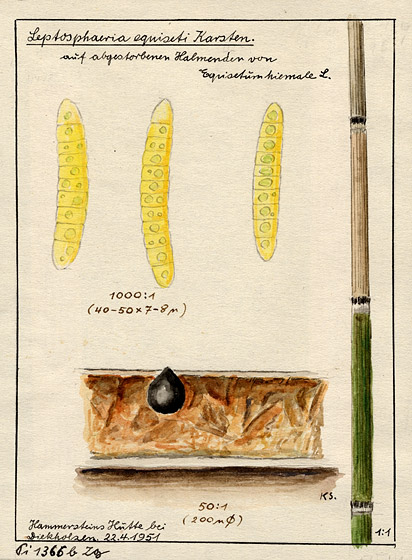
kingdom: Plantae
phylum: Tracheophyta
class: Polypodiopsida
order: Equisetales
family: Equisetaceae
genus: Equisetum
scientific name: Equisetum hyemale
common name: Rough horsetail
